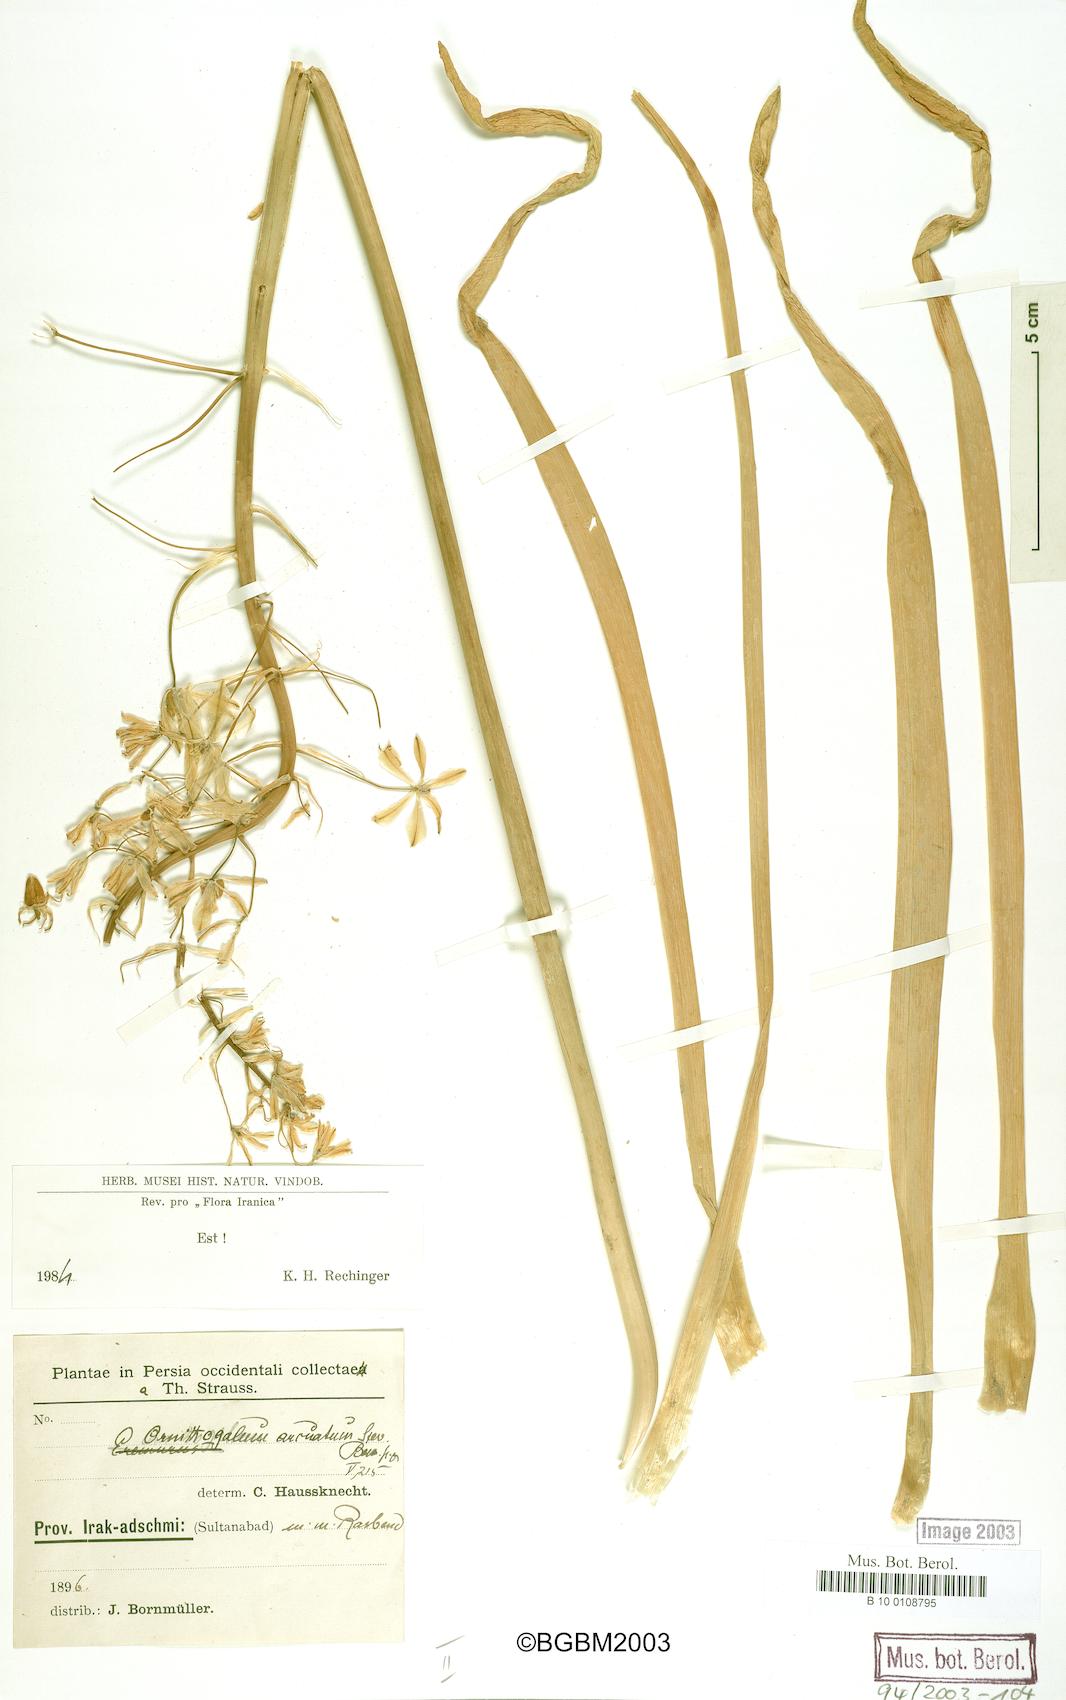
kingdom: Plantae
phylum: Tracheophyta
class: Liliopsida
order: Asparagales
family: Asparagaceae
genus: Ornithogalum
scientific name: Ornithogalum arcuatum
